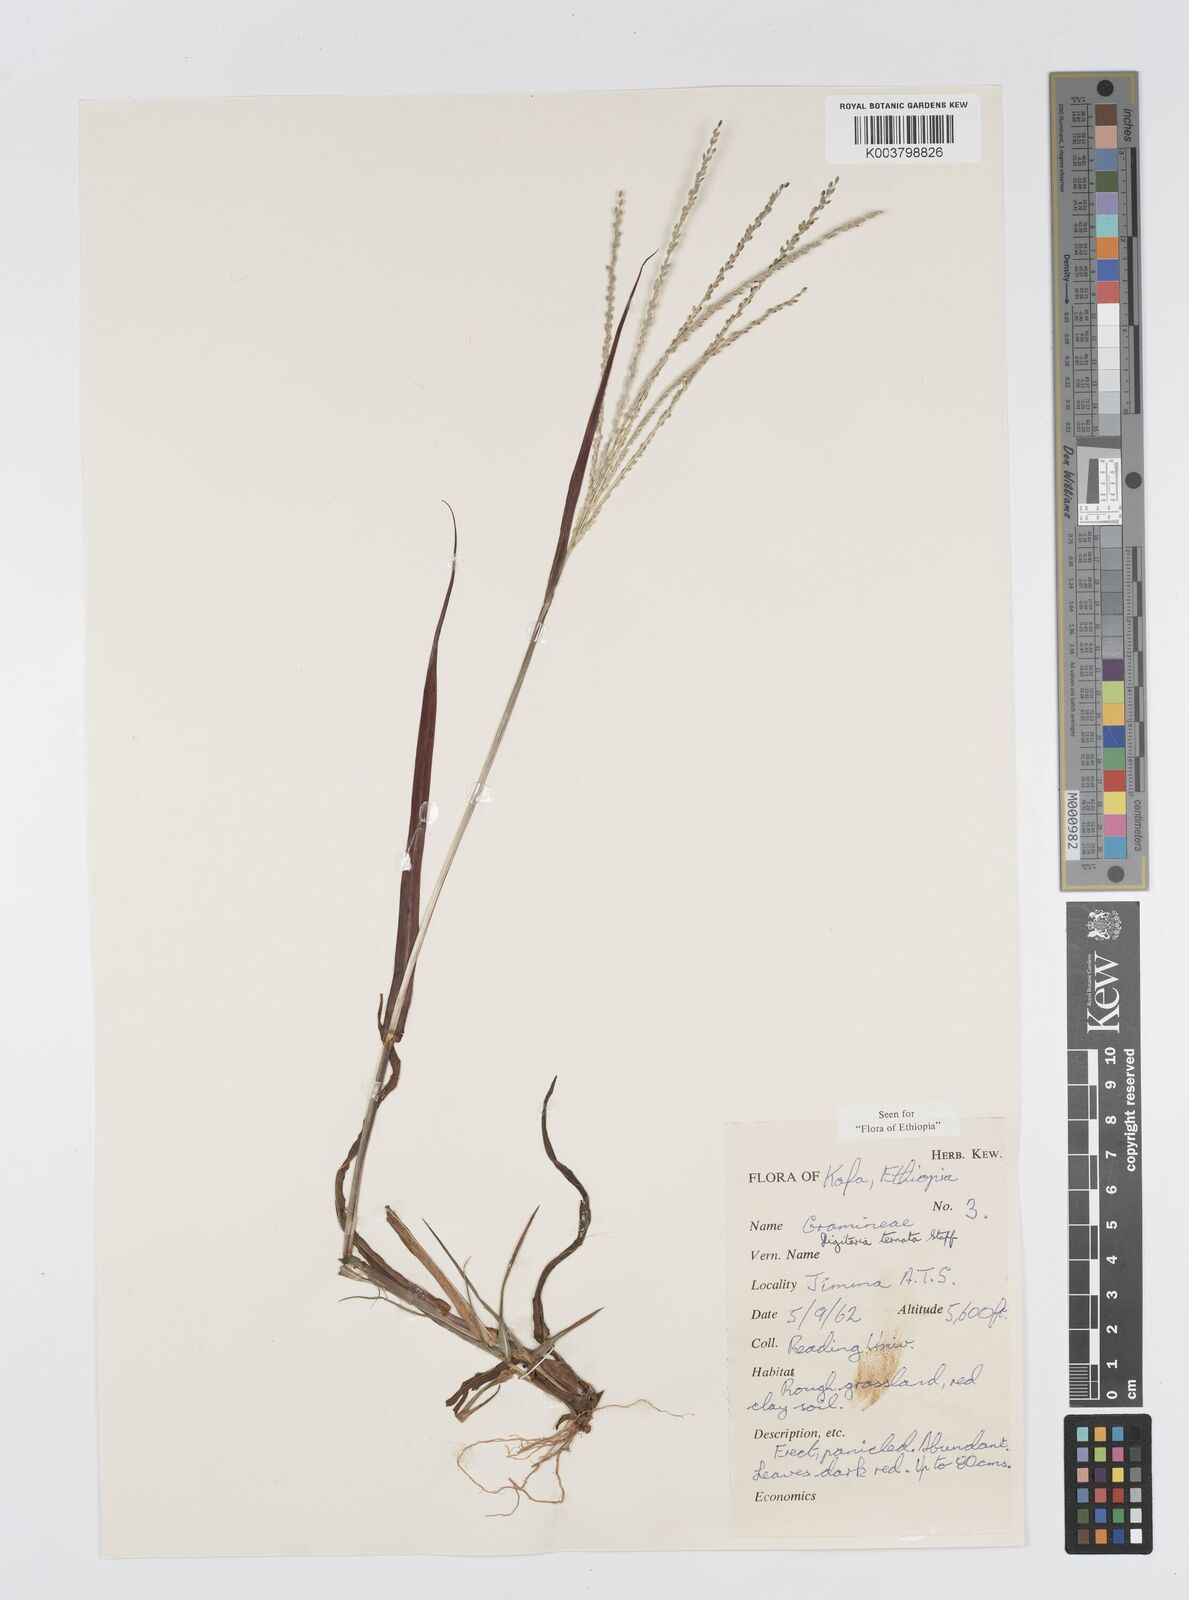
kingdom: Plantae
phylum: Tracheophyta
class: Liliopsida
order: Poales
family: Poaceae
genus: Digitaria
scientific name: Digitaria ternata
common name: Blackseed crabgrass
